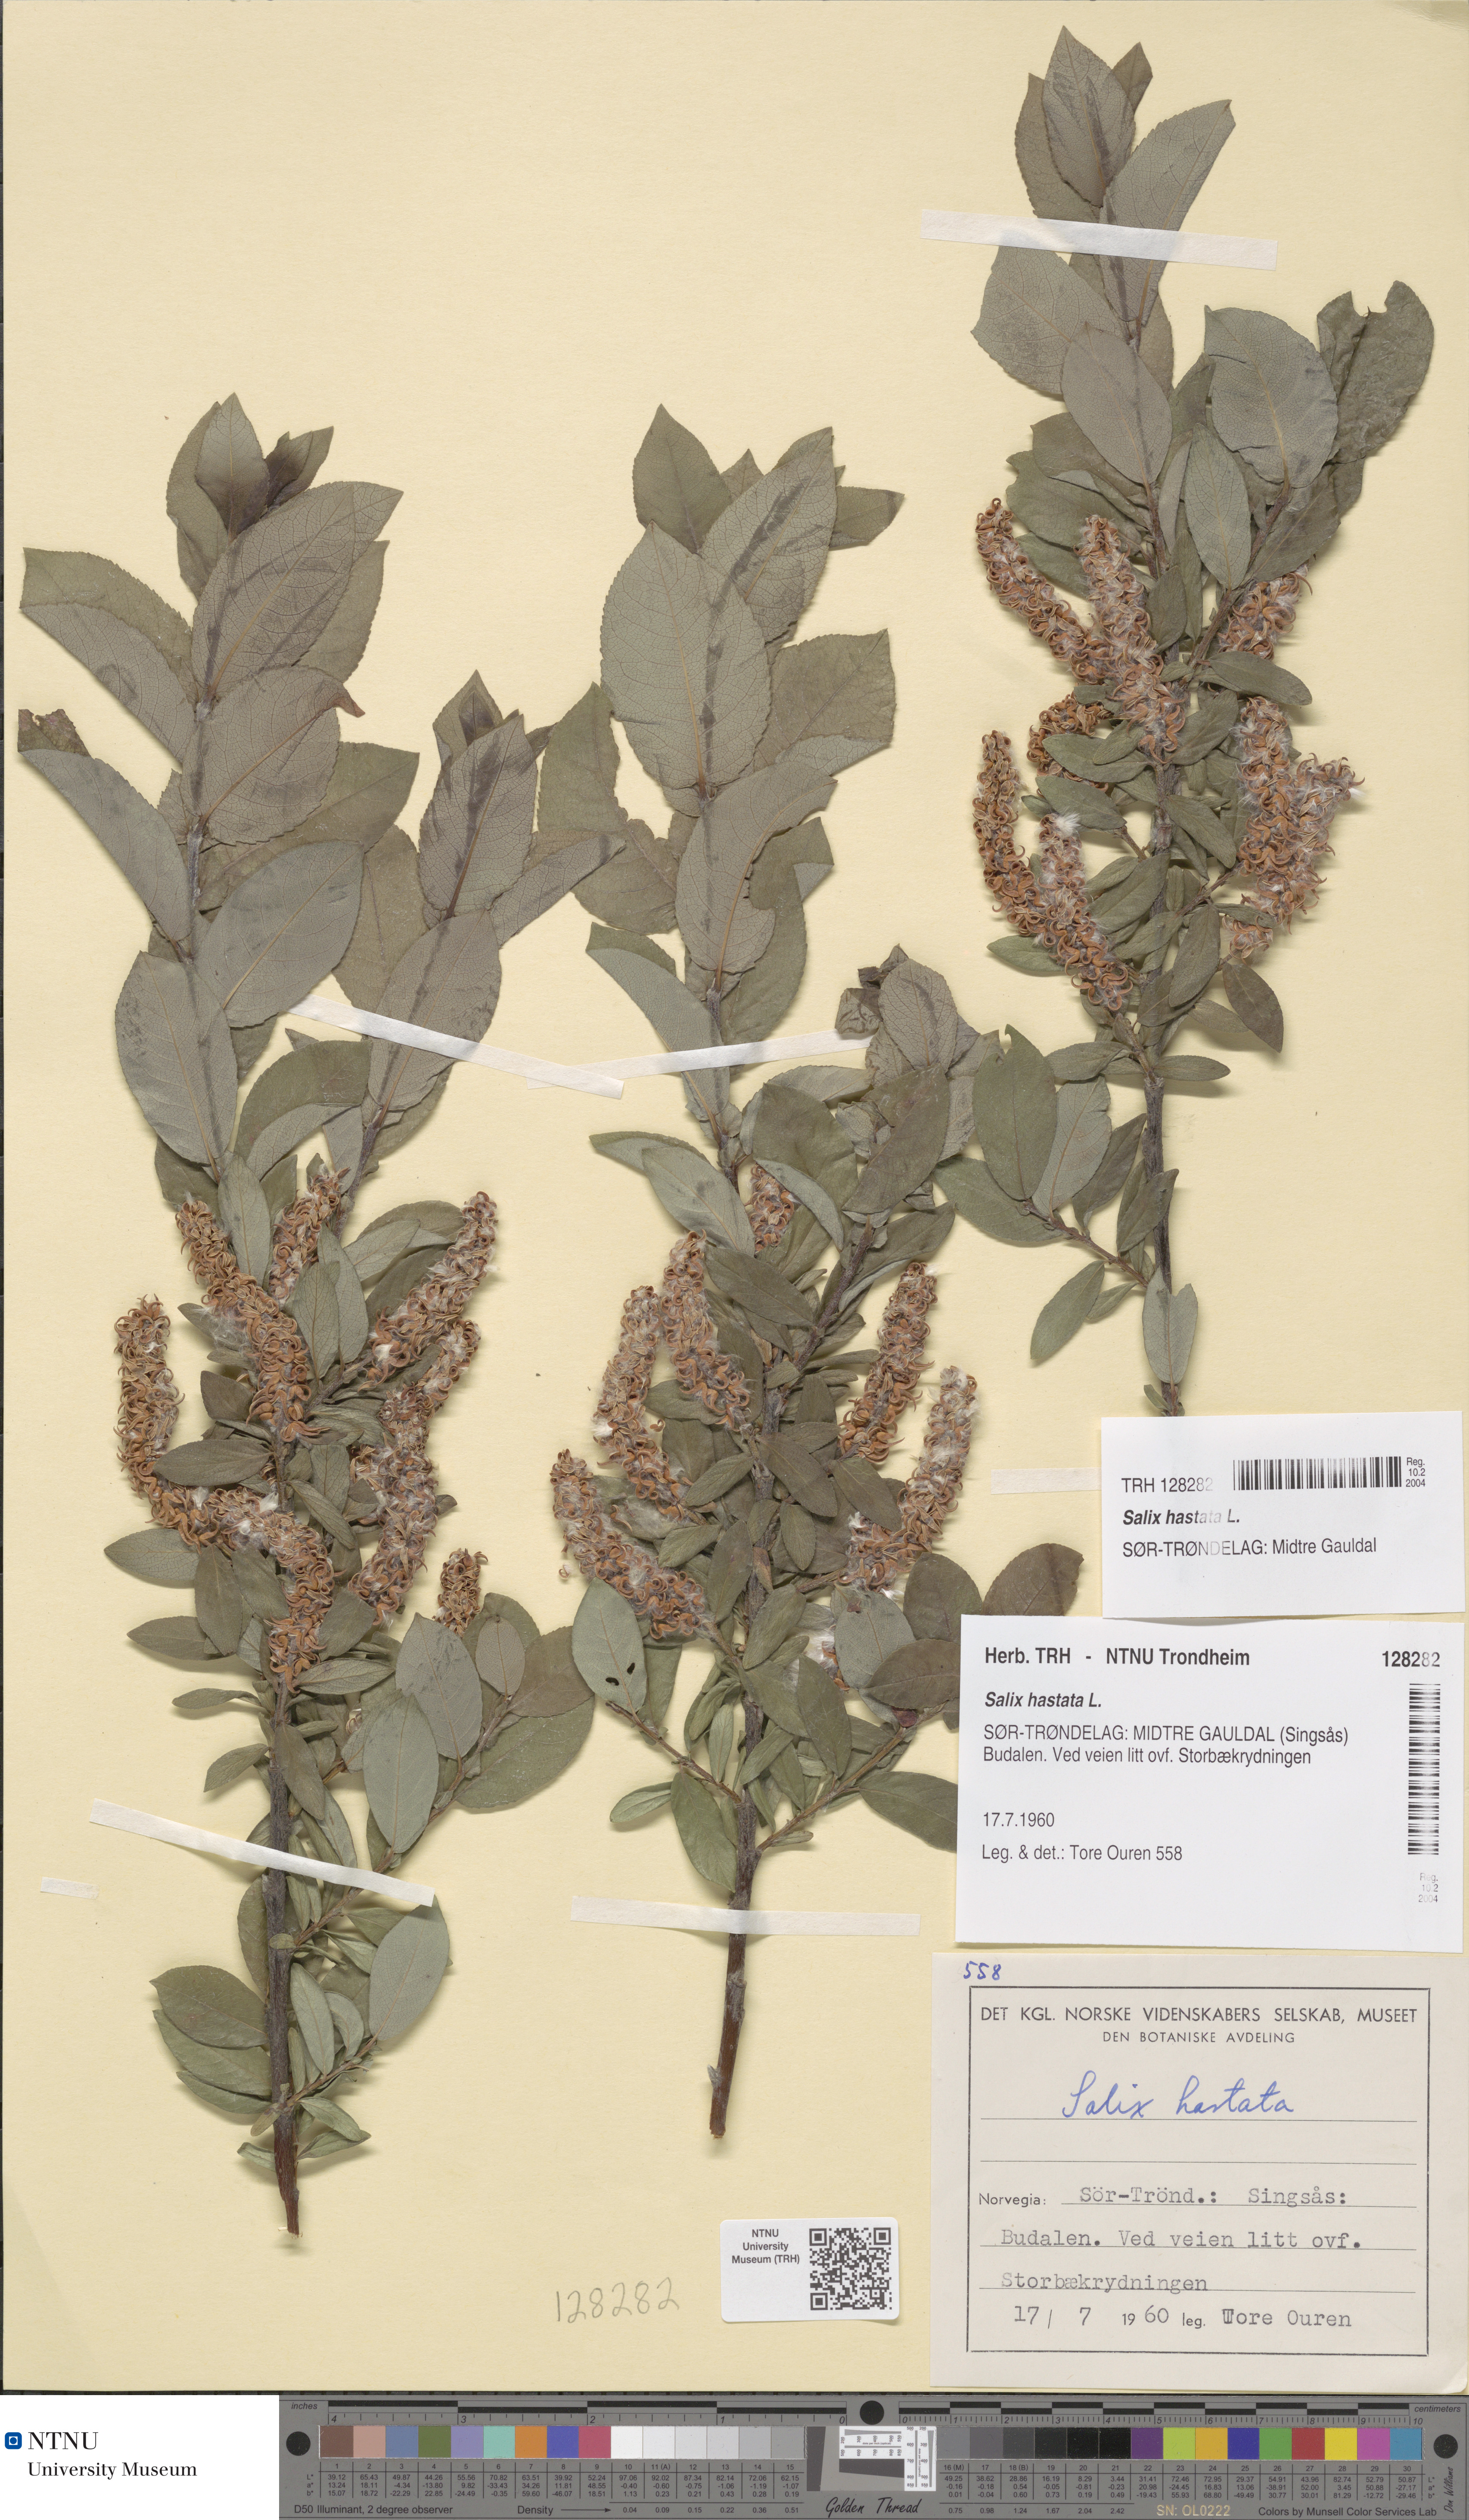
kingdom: Plantae
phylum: Tracheophyta
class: Magnoliopsida
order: Malpighiales
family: Salicaceae
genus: Salix
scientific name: Salix hastata
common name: Halberd willow
